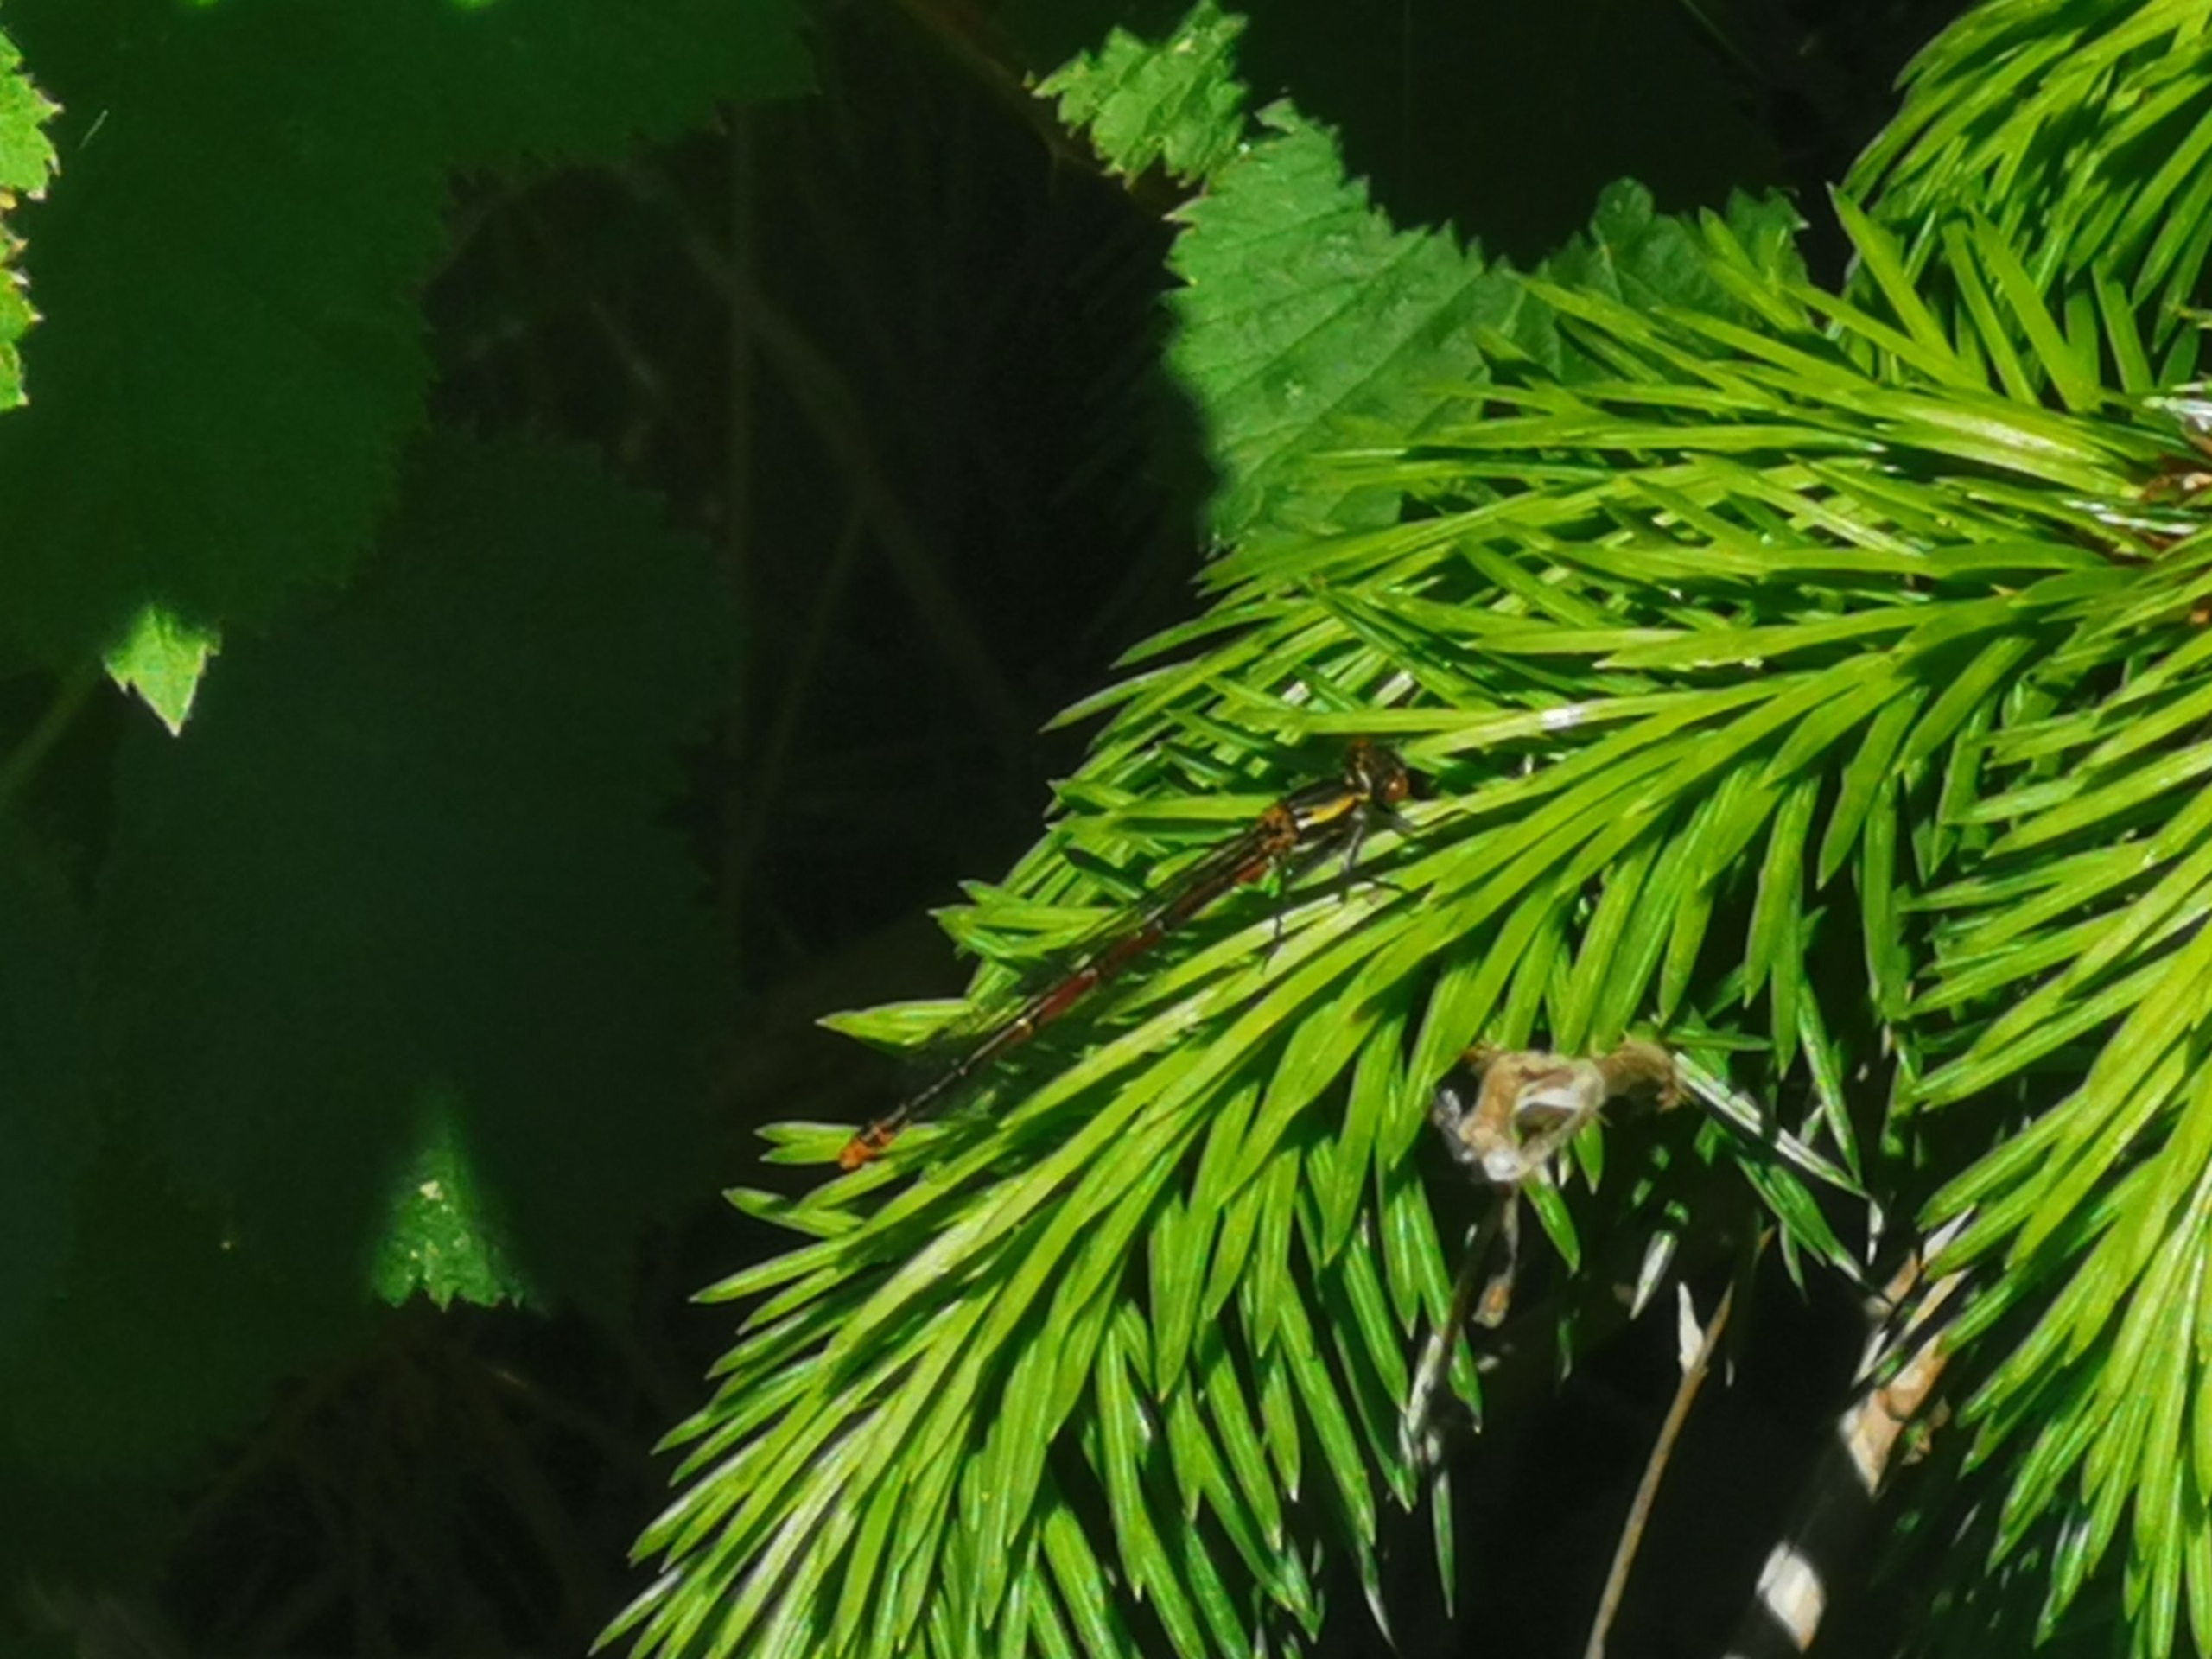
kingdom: Animalia
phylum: Arthropoda
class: Insecta
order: Odonata
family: Coenagrionidae
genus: Pyrrhosoma
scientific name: Pyrrhosoma nymphula
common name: Rød vandnymfe
